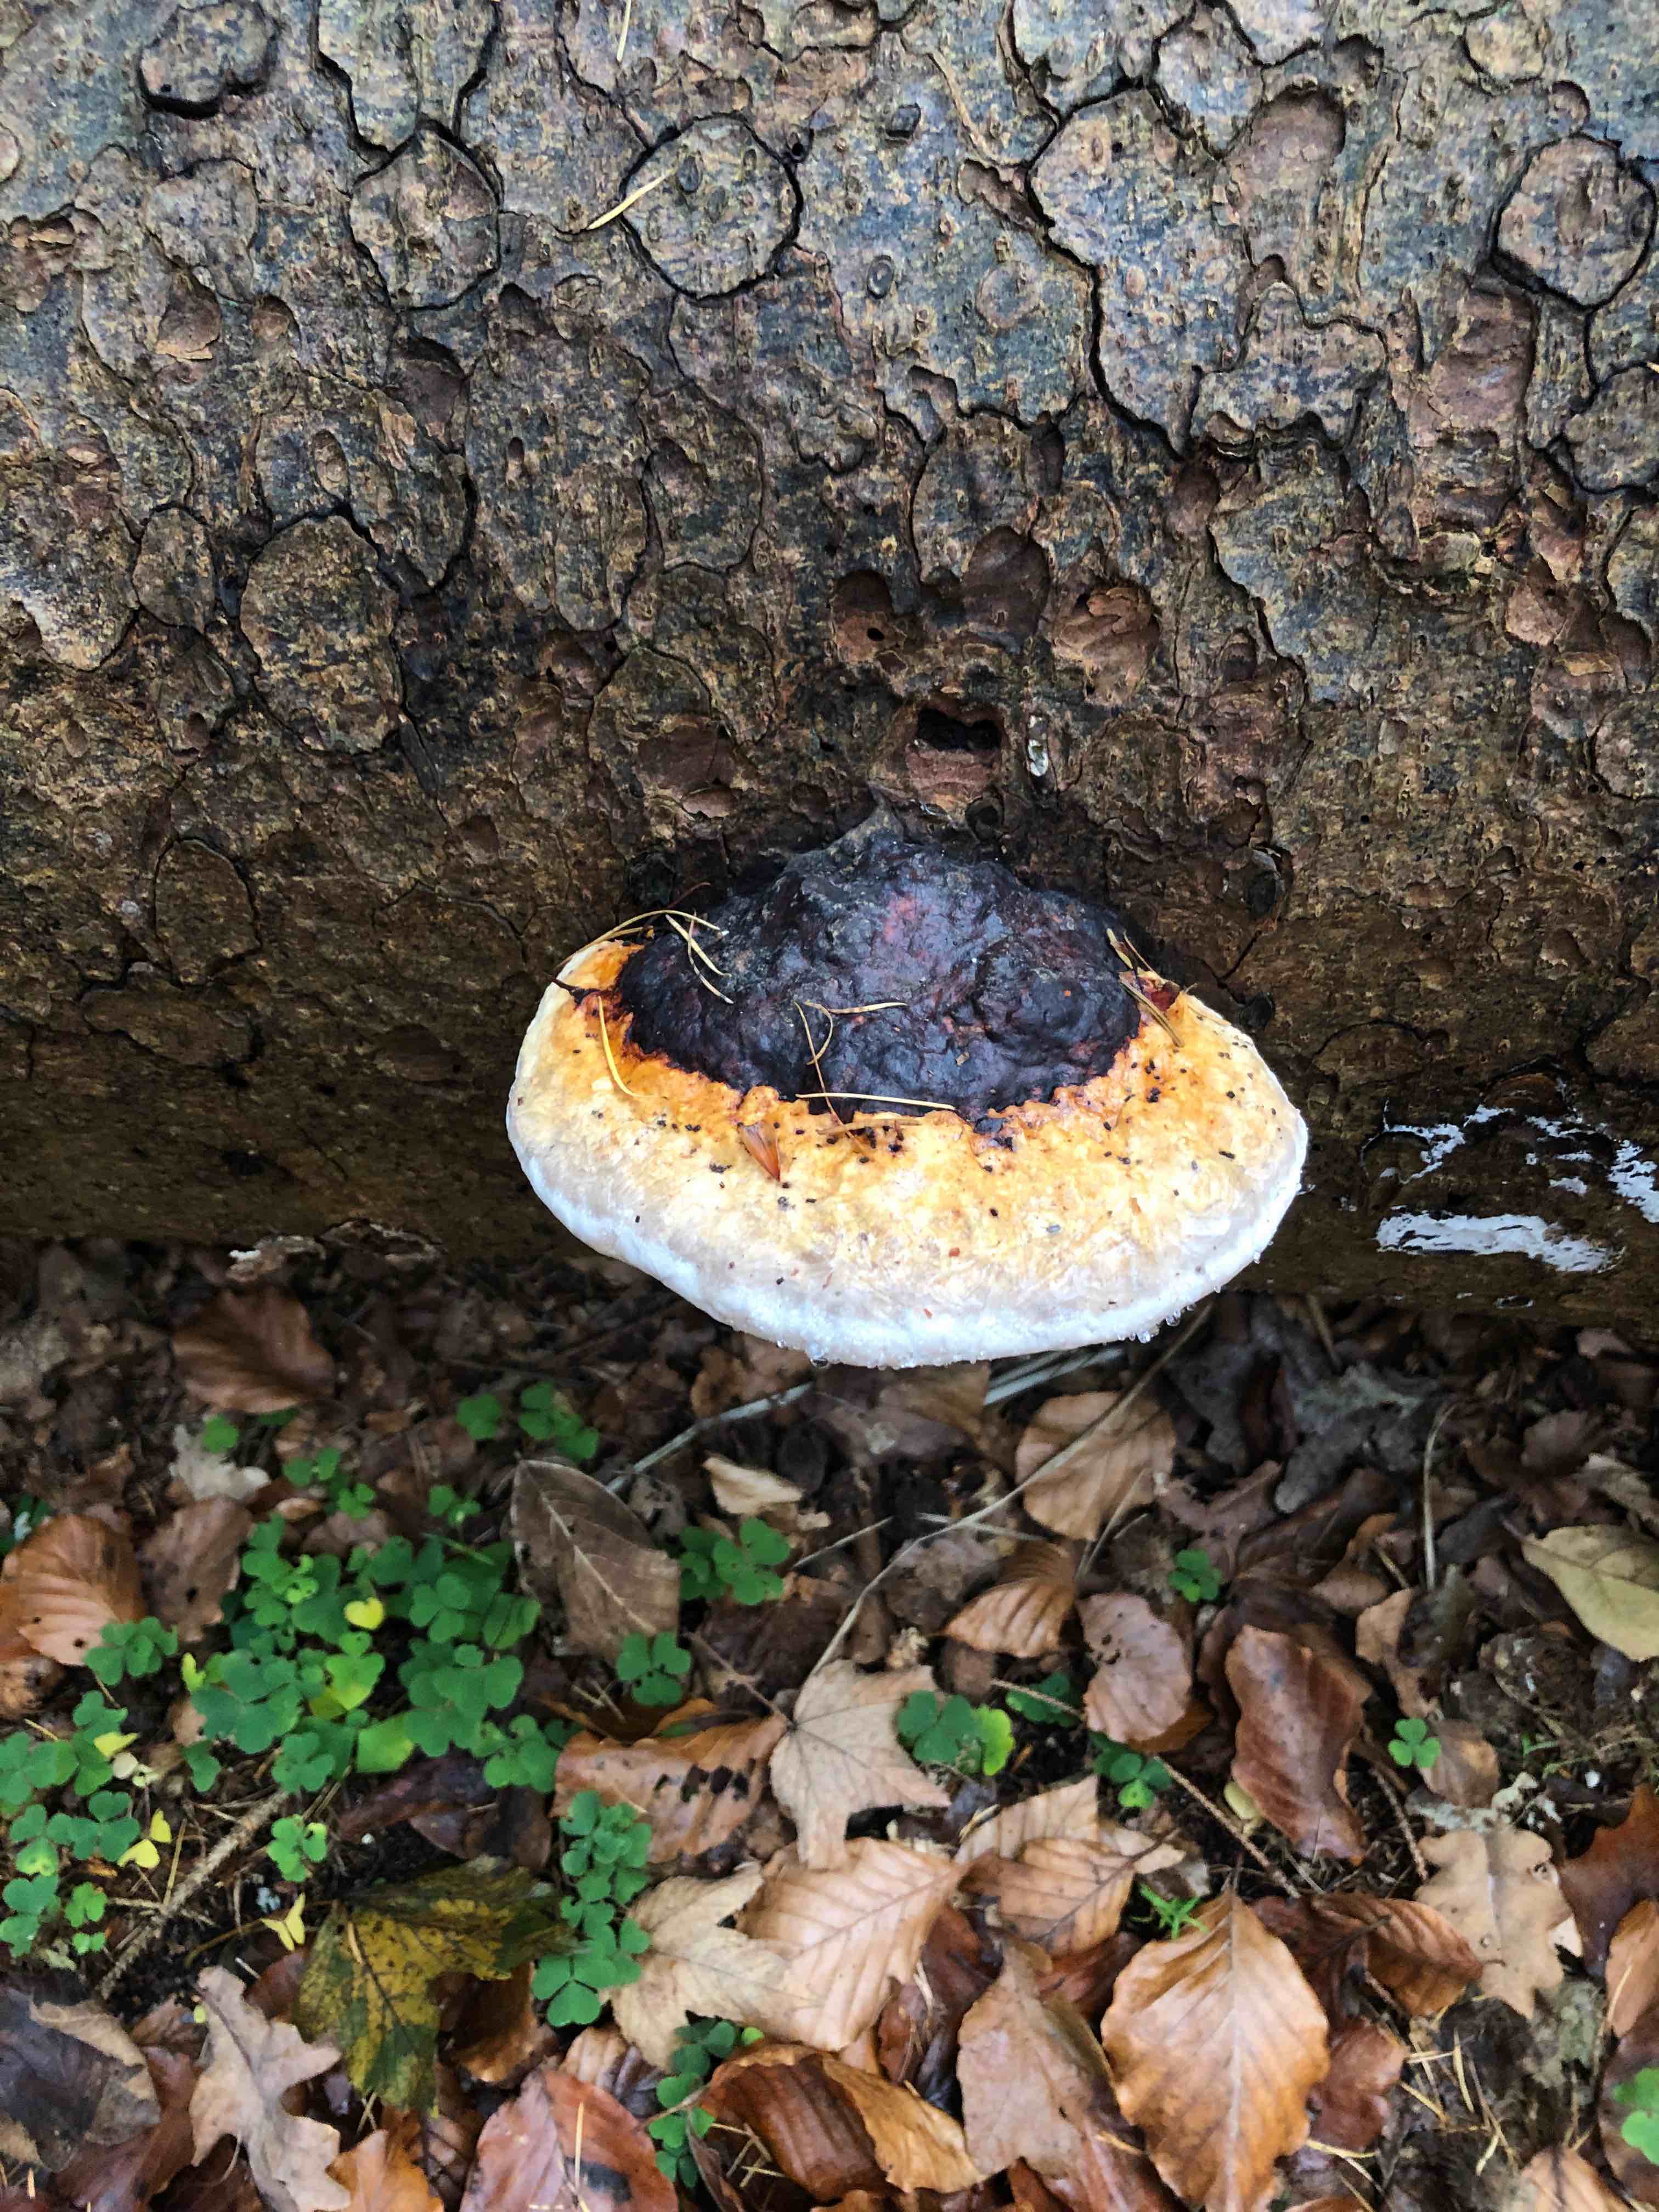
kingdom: Fungi
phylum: Basidiomycota
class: Agaricomycetes
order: Polyporales
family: Fomitopsidaceae
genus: Fomitopsis
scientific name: Fomitopsis pinicola
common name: randbæltet hovporesvamp
